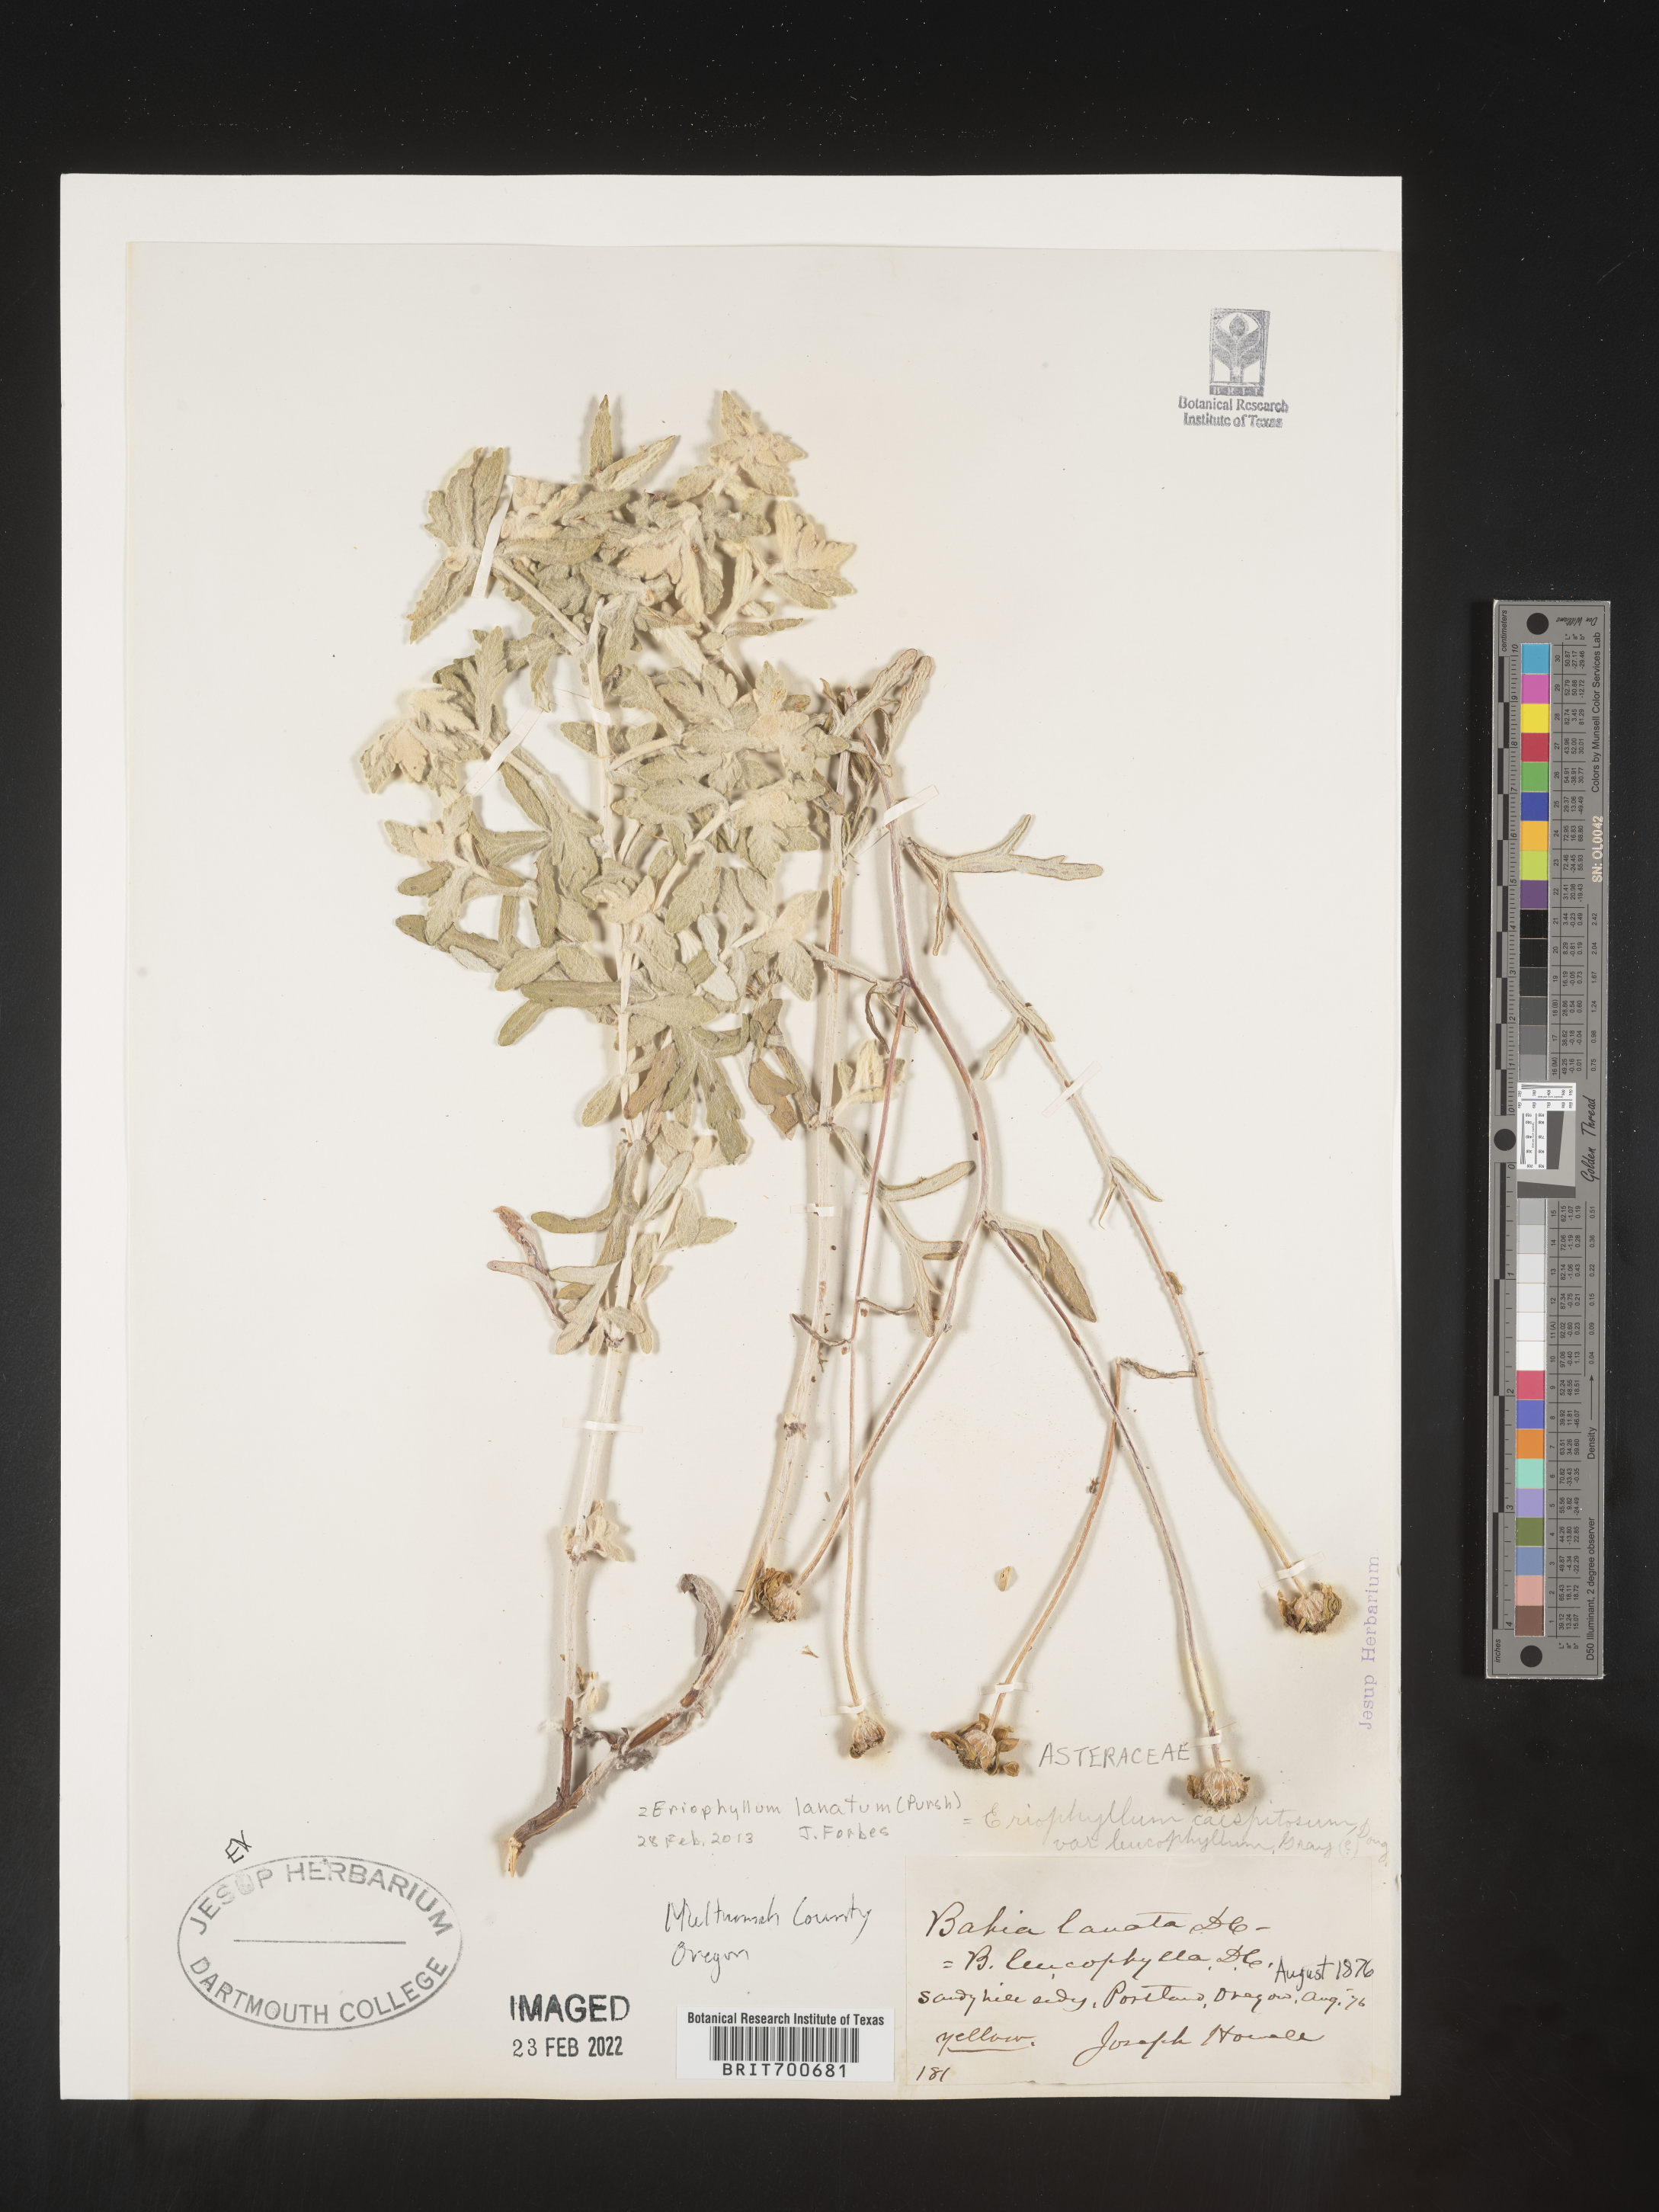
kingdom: Plantae
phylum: Tracheophyta
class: Magnoliopsida
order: Asterales
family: Asteraceae
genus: Eriophyllum
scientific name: Eriophyllum lanatum
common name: Common woolly-sunflower
